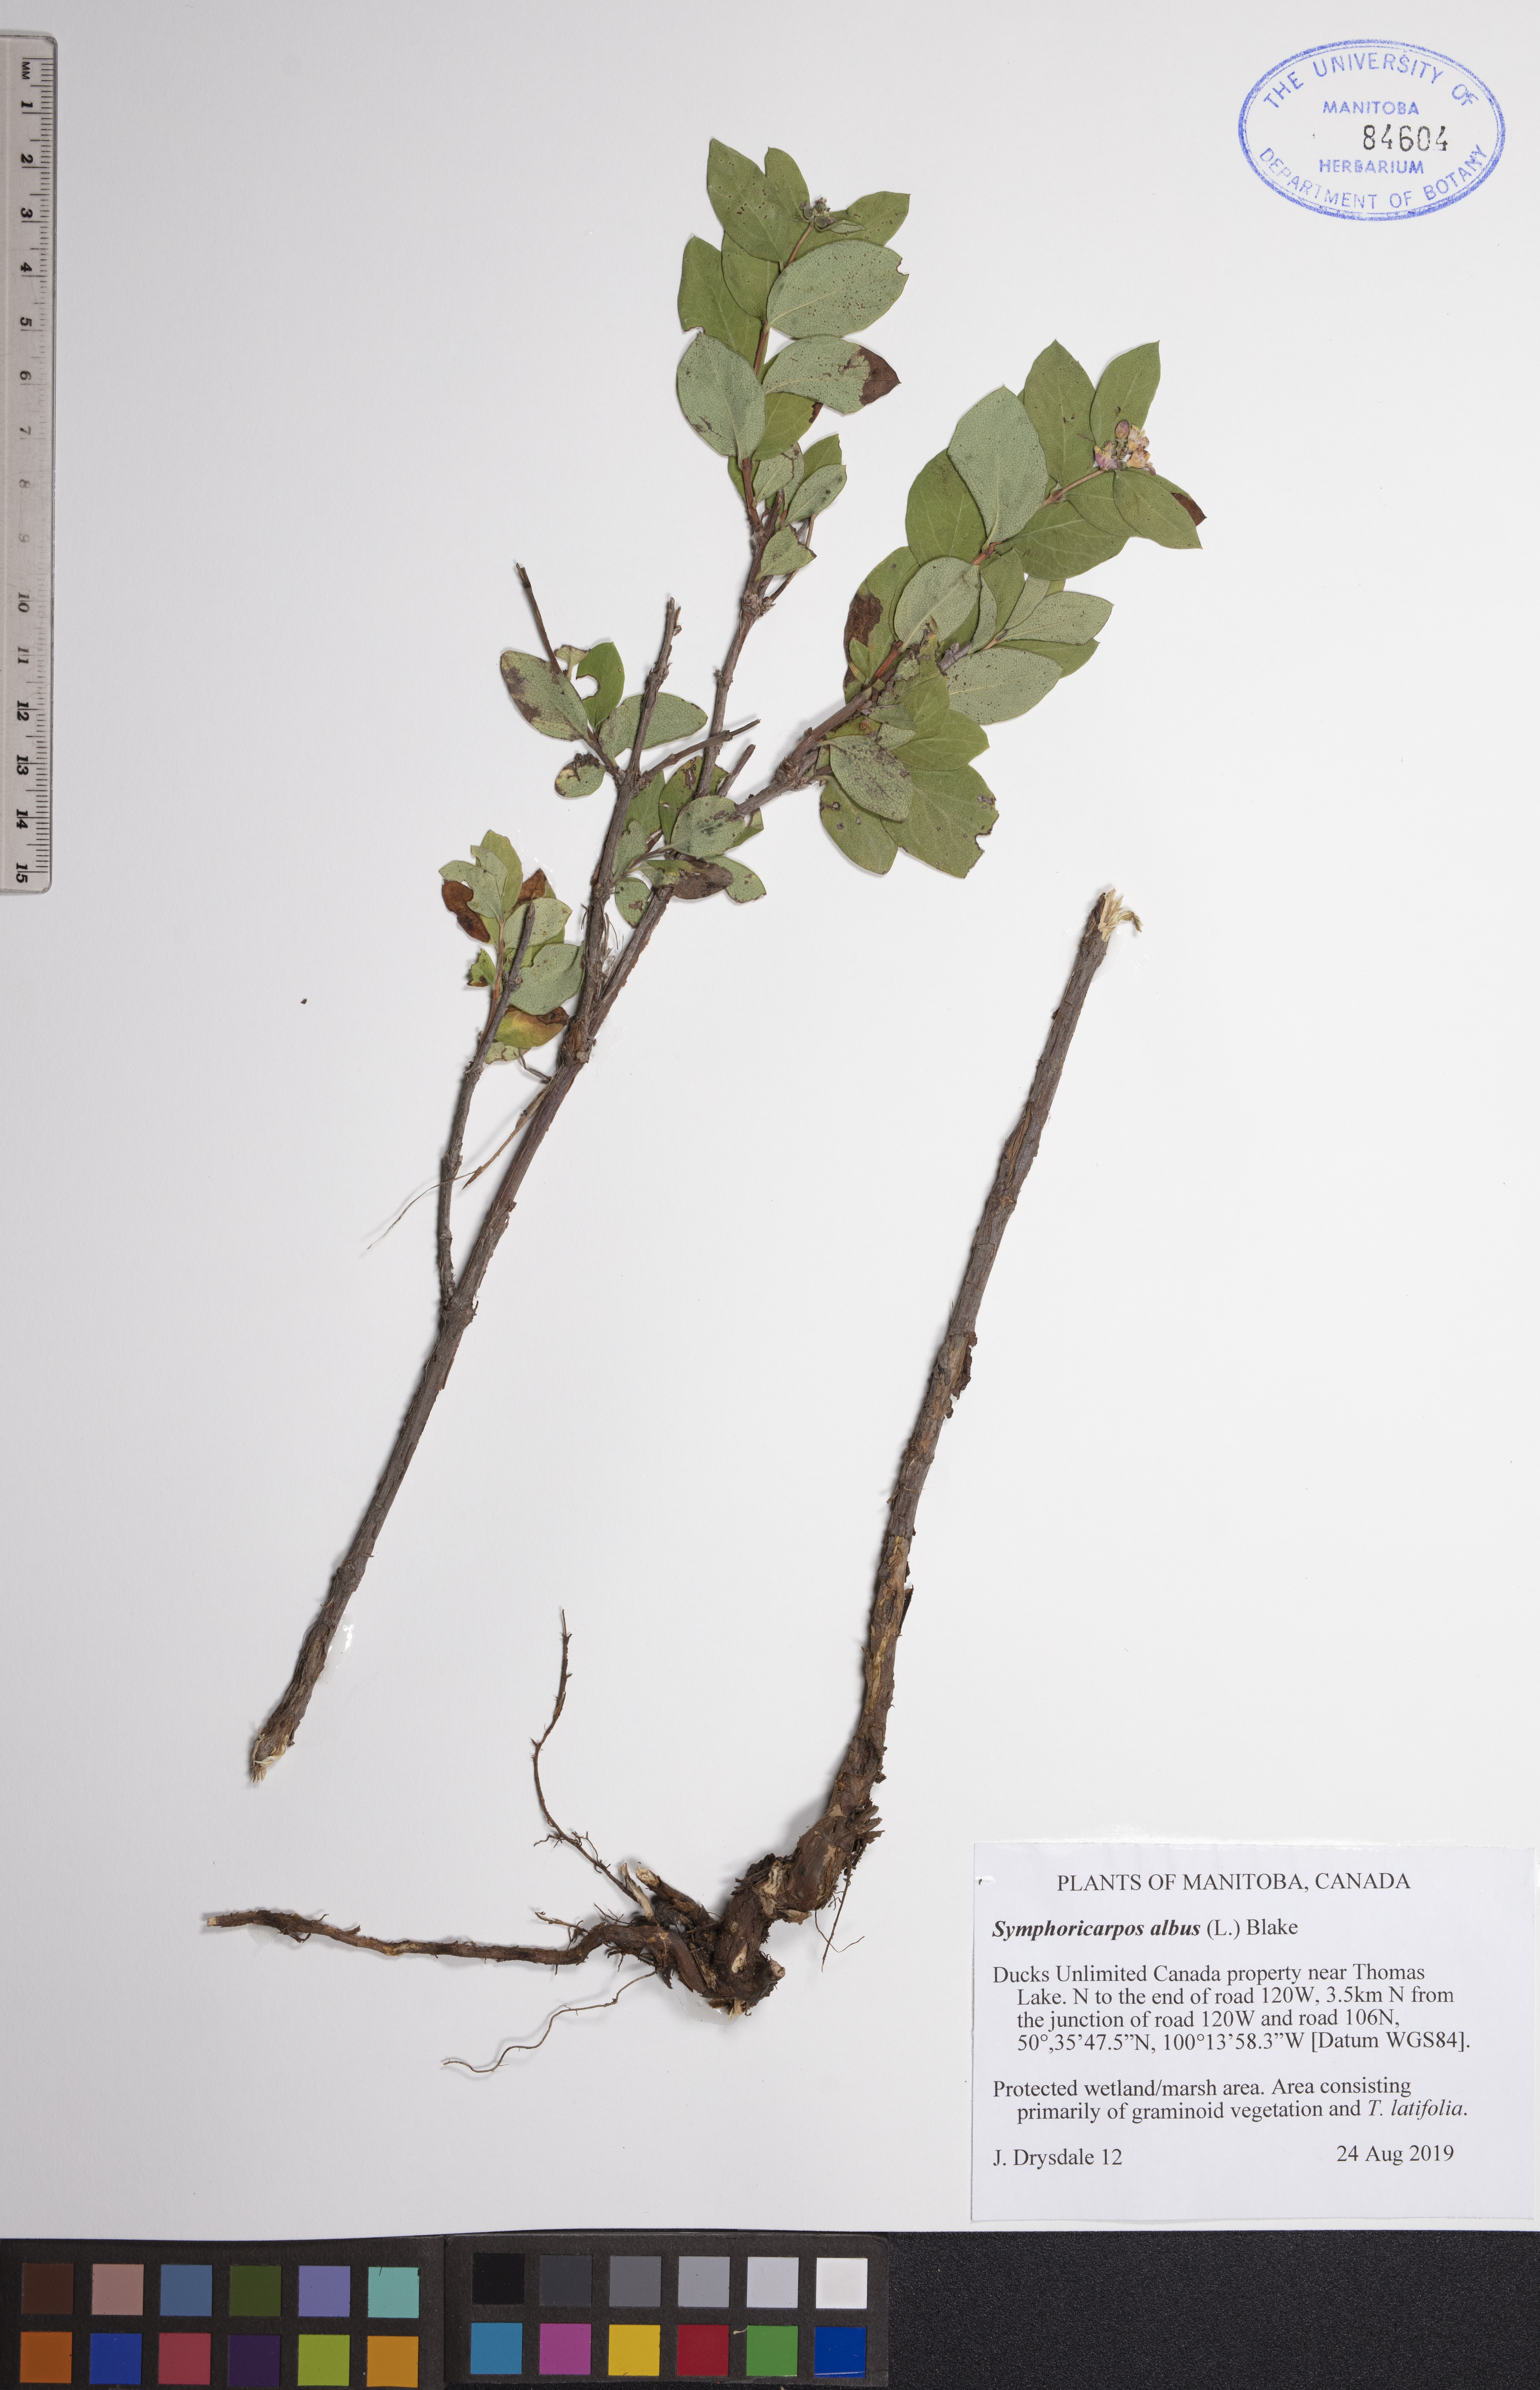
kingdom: Plantae
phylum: Tracheophyta
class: Magnoliopsida
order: Dipsacales
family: Caprifoliaceae
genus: Symphoricarpos
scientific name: Symphoricarpos albus
